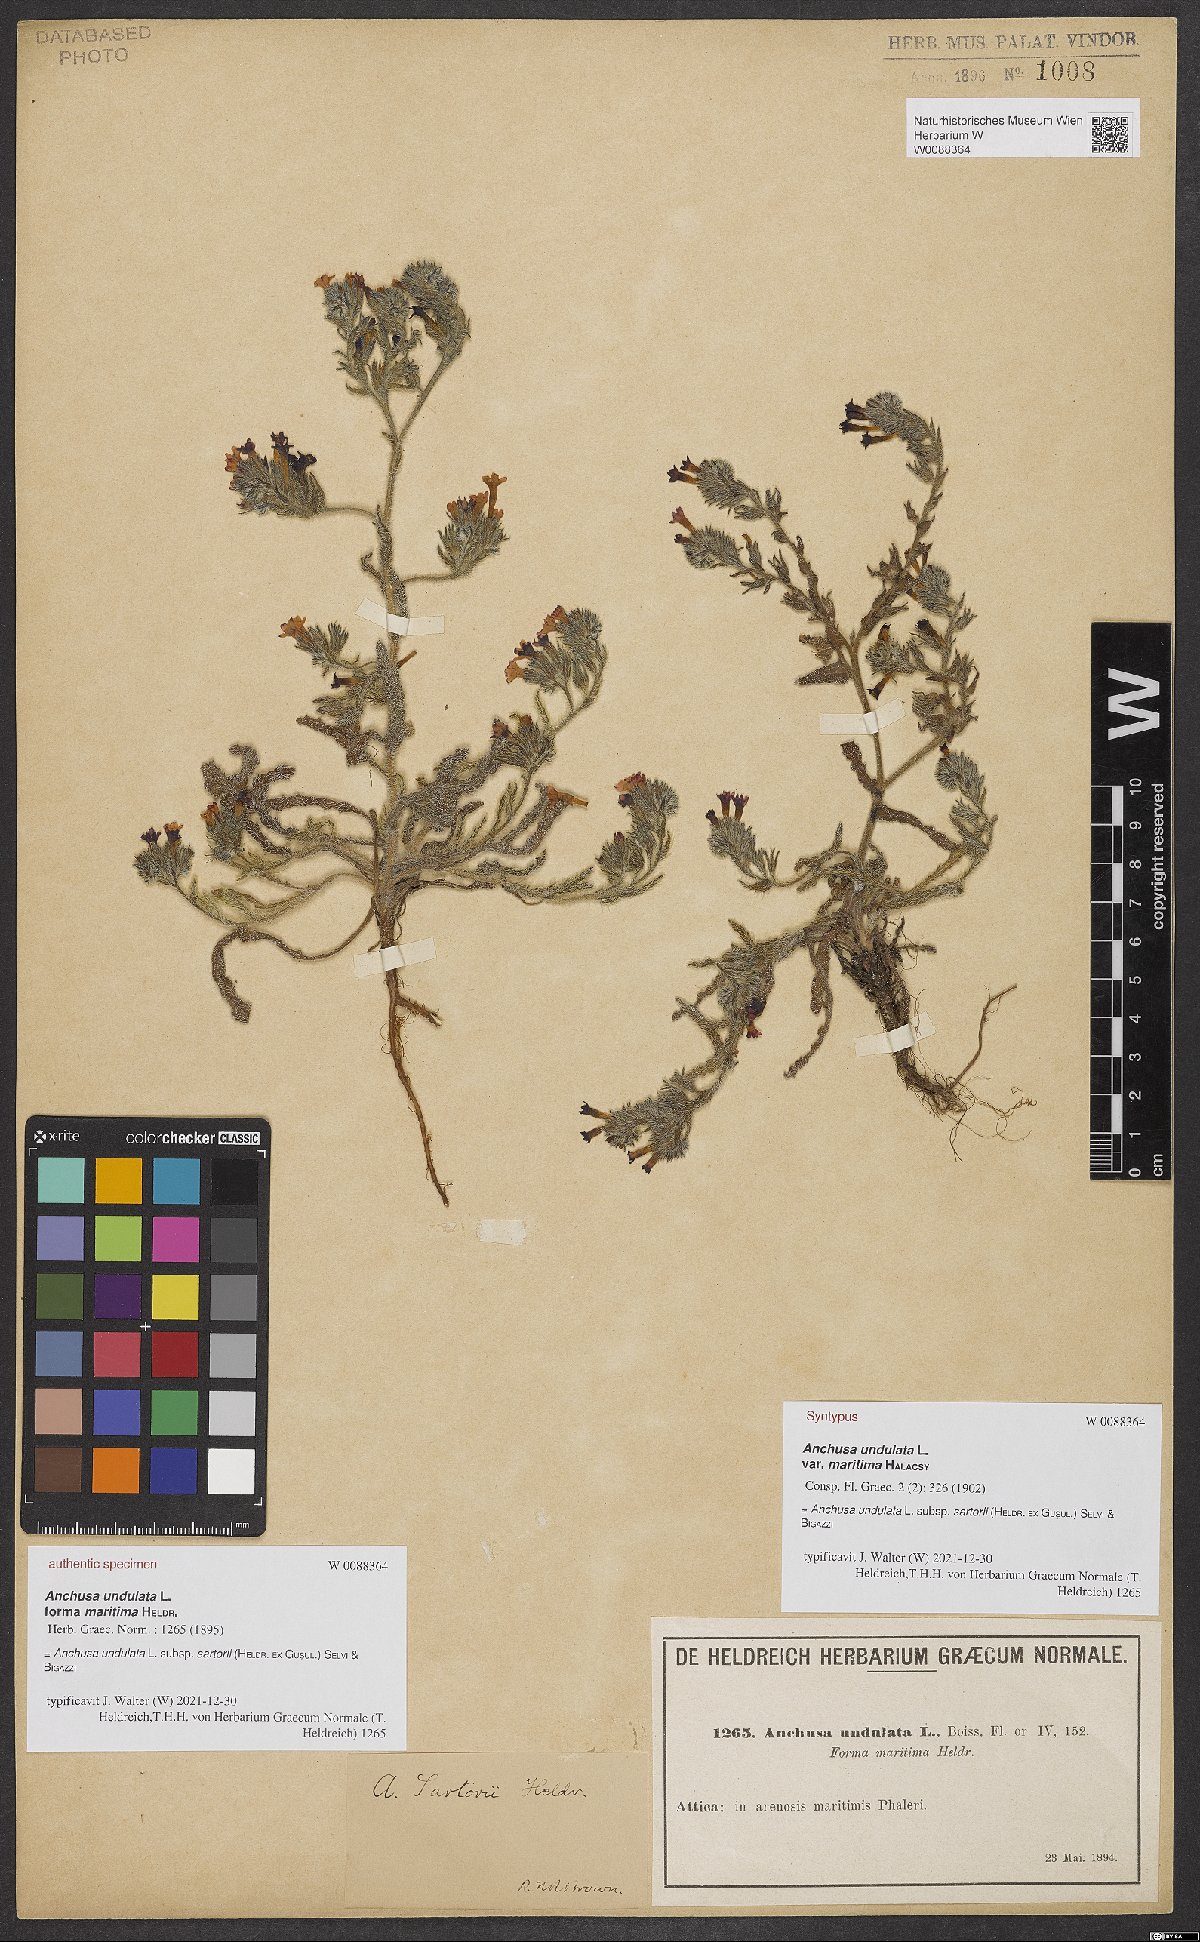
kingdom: Plantae
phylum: Tracheophyta
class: Magnoliopsida
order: Boraginales
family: Boraginaceae
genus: Anchusa
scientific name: Anchusa undulata
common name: Undulate alkanet
